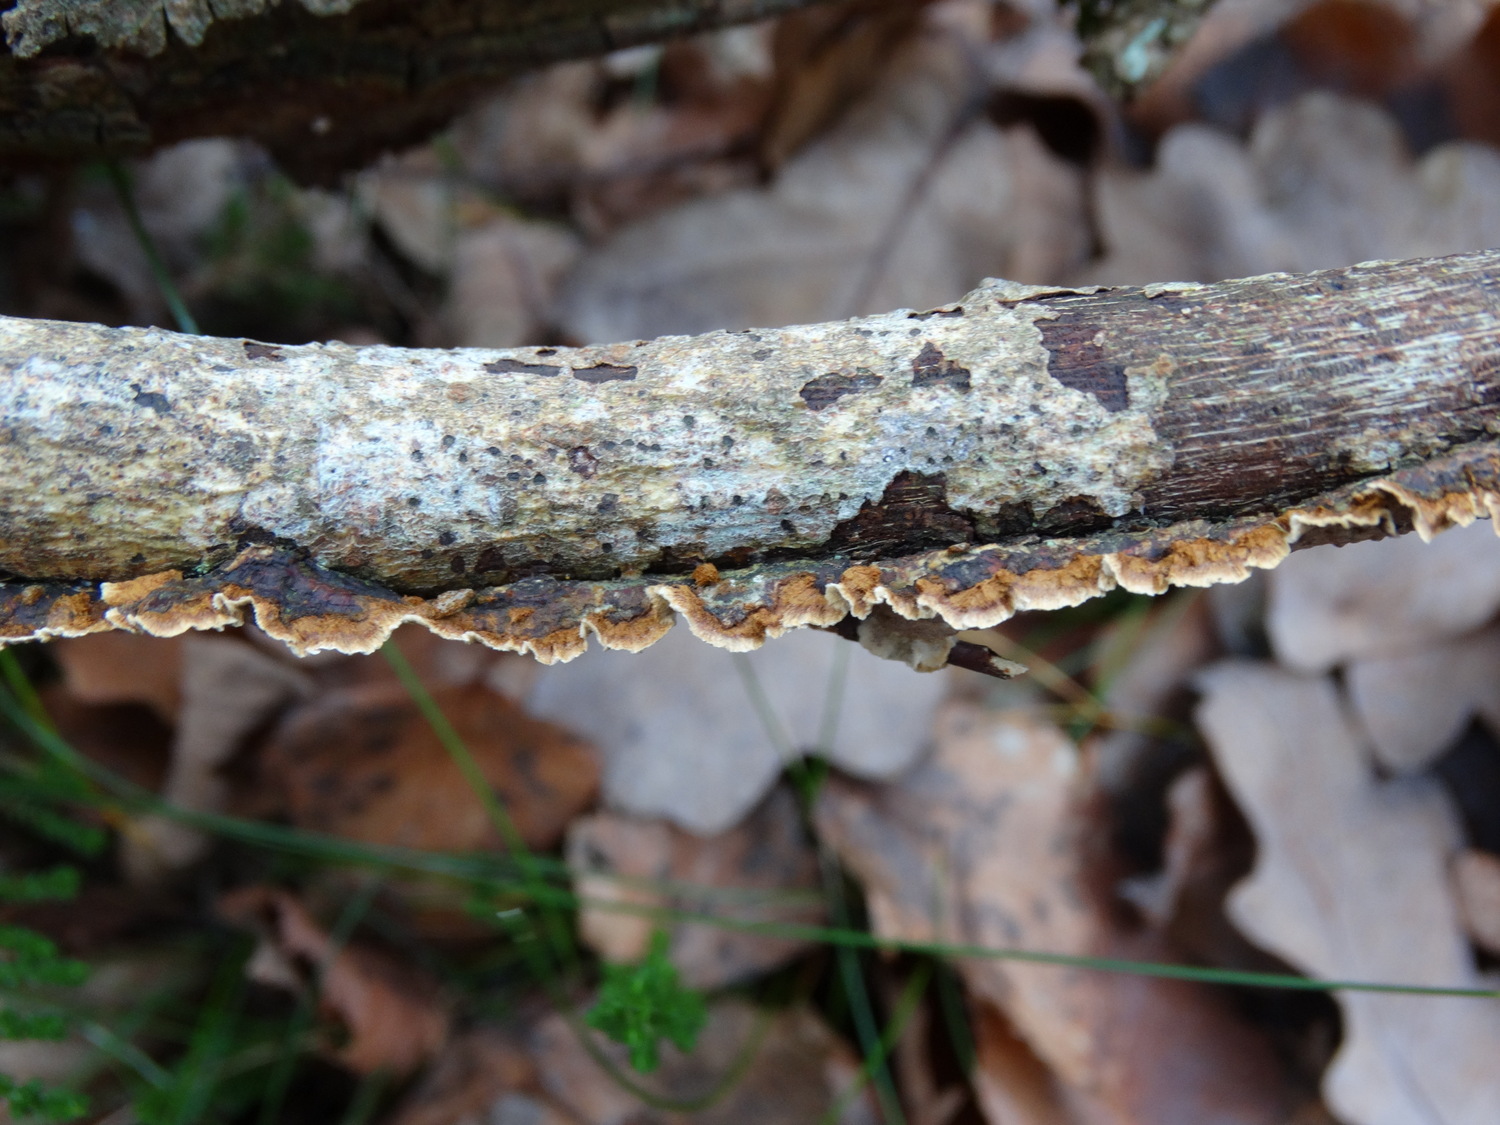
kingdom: Fungi
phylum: Basidiomycota
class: Agaricomycetes
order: Hymenochaetales
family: Hymenochaetaceae
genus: Hydnoporia
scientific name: Hydnoporia tabacina
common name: tobaksbrun ruslædersvamp
